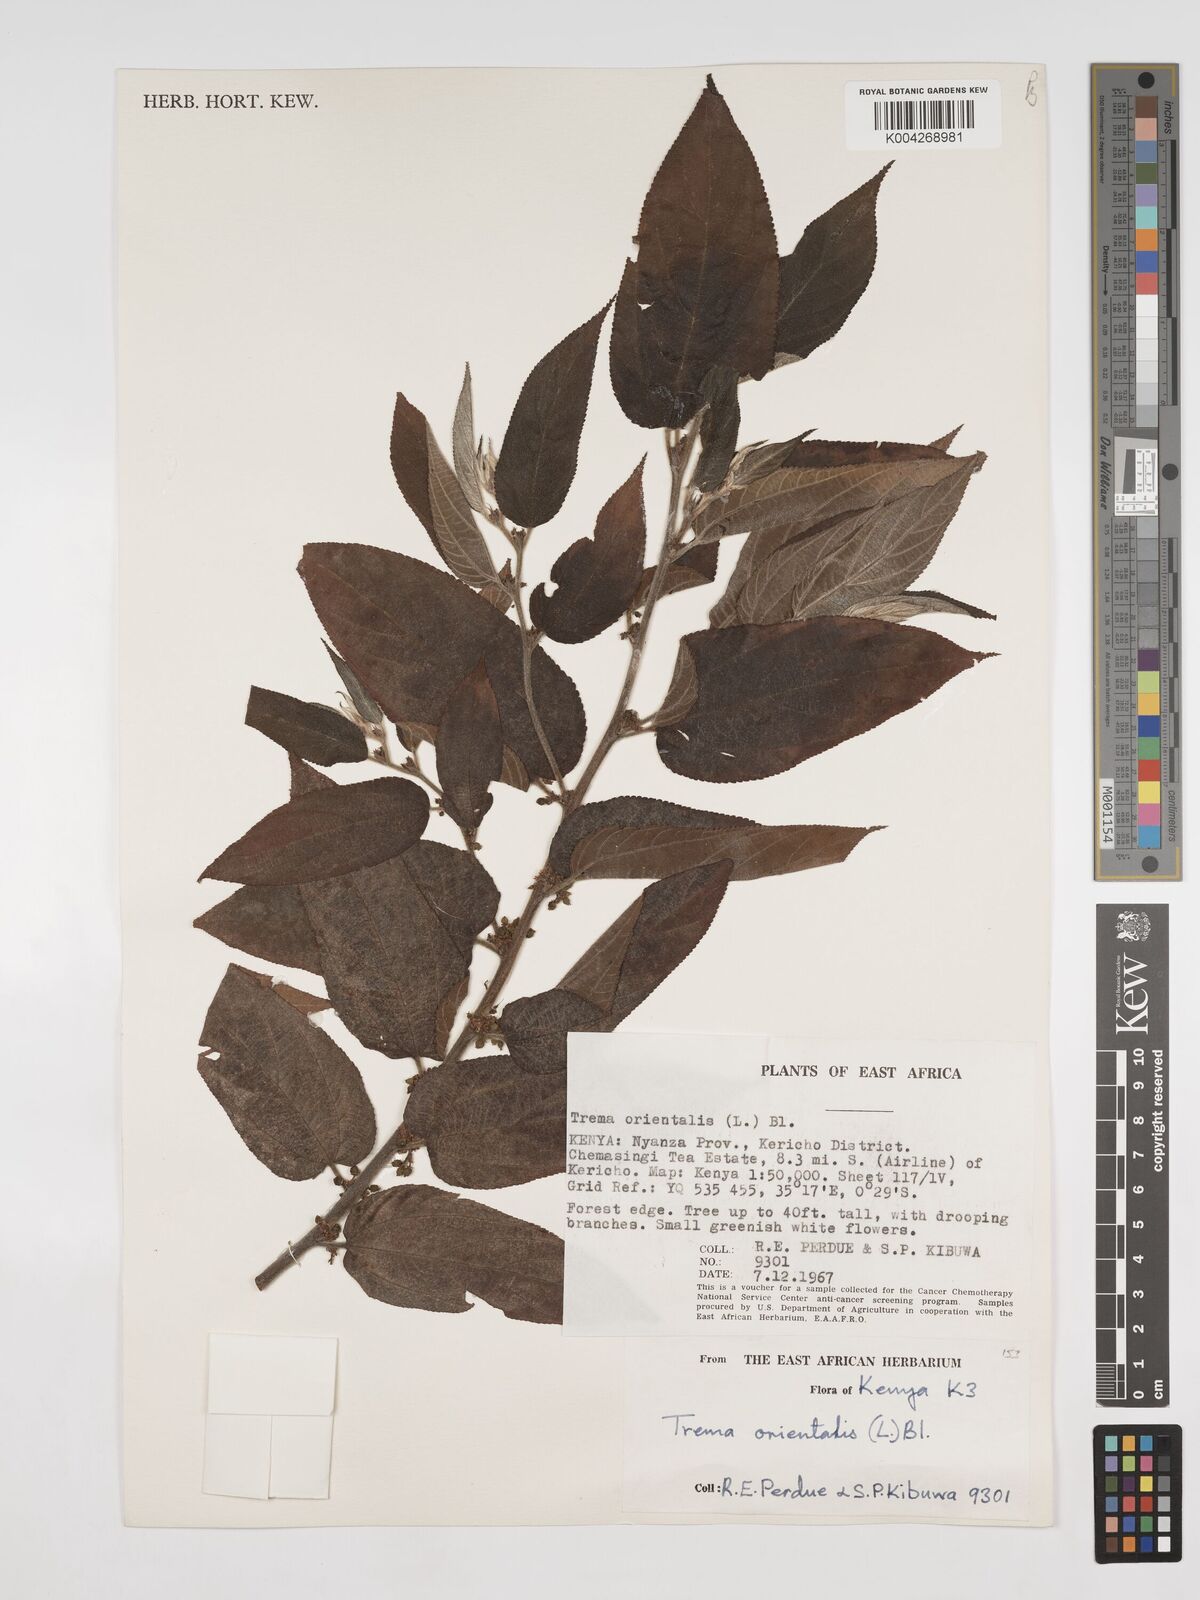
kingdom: Plantae
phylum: Tracheophyta
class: Magnoliopsida
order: Rosales
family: Cannabaceae
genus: Trema
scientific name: Trema orientale
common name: Indian charcoal tree
